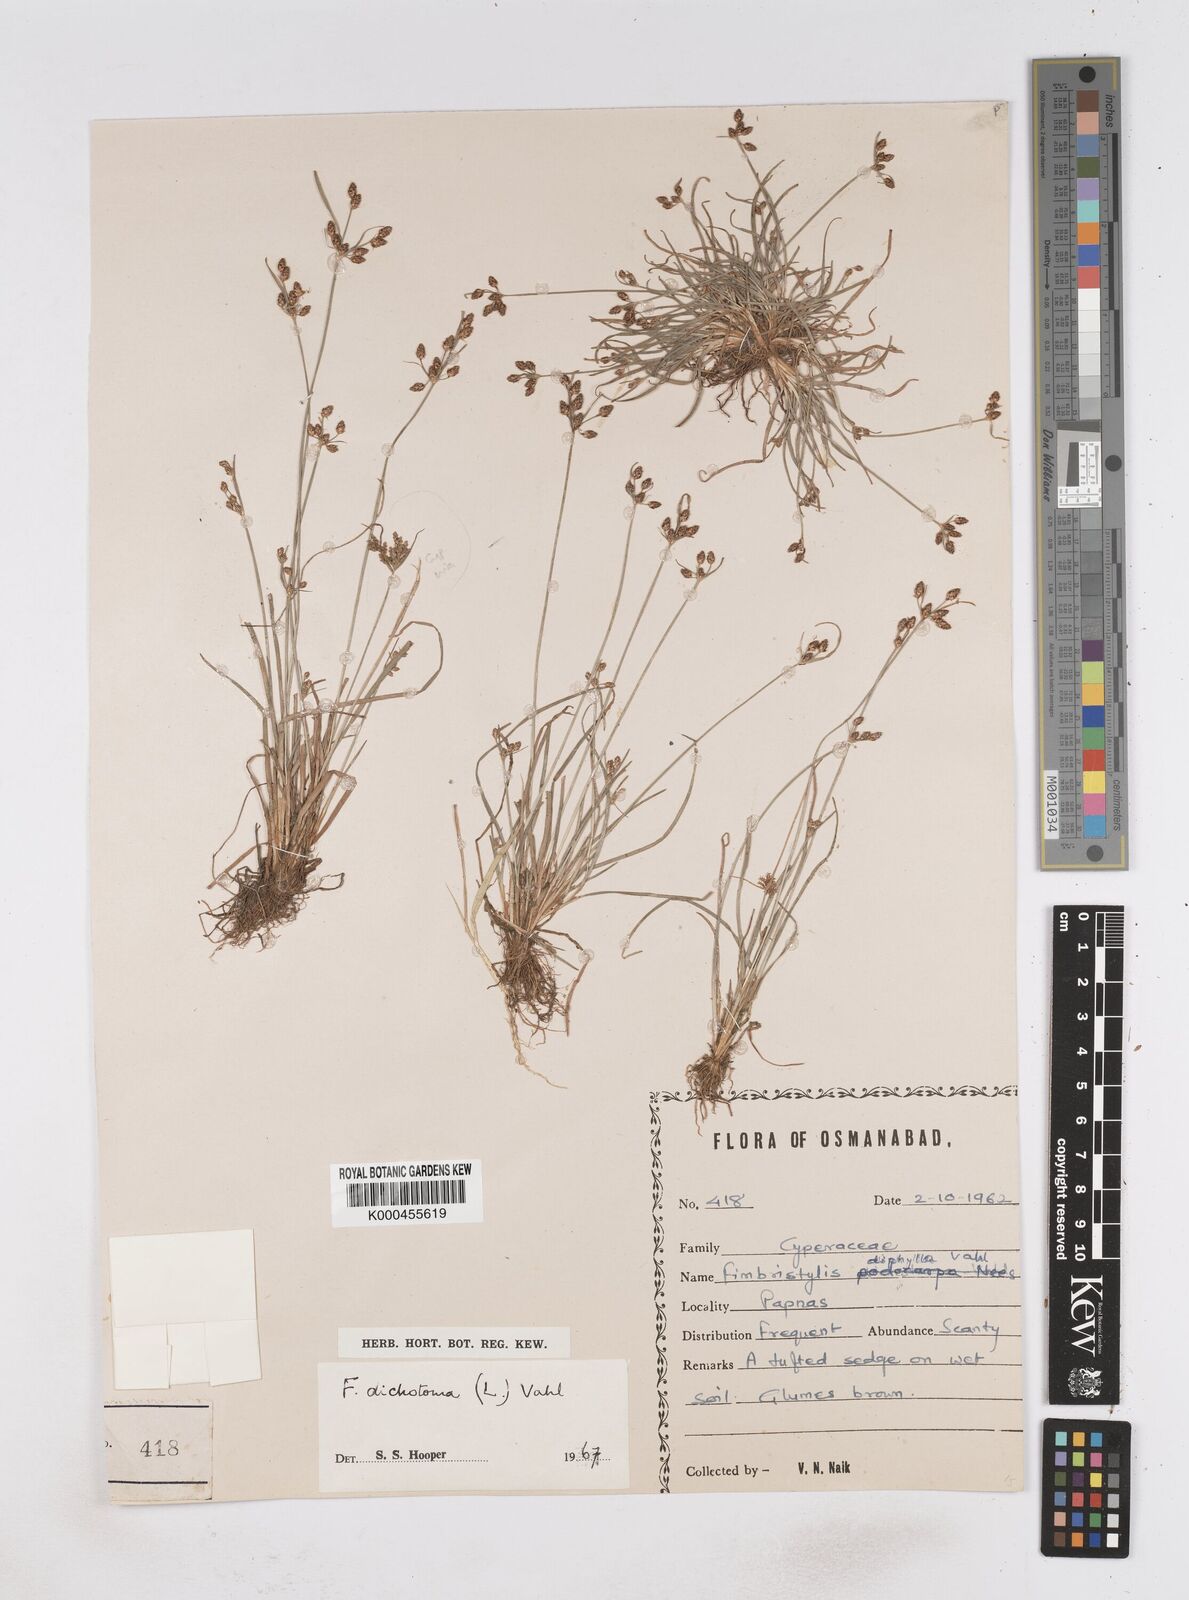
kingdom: Plantae
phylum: Tracheophyta
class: Liliopsida
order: Poales
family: Cyperaceae
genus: Fimbristylis
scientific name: Fimbristylis dichotoma
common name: Forked fimbry
